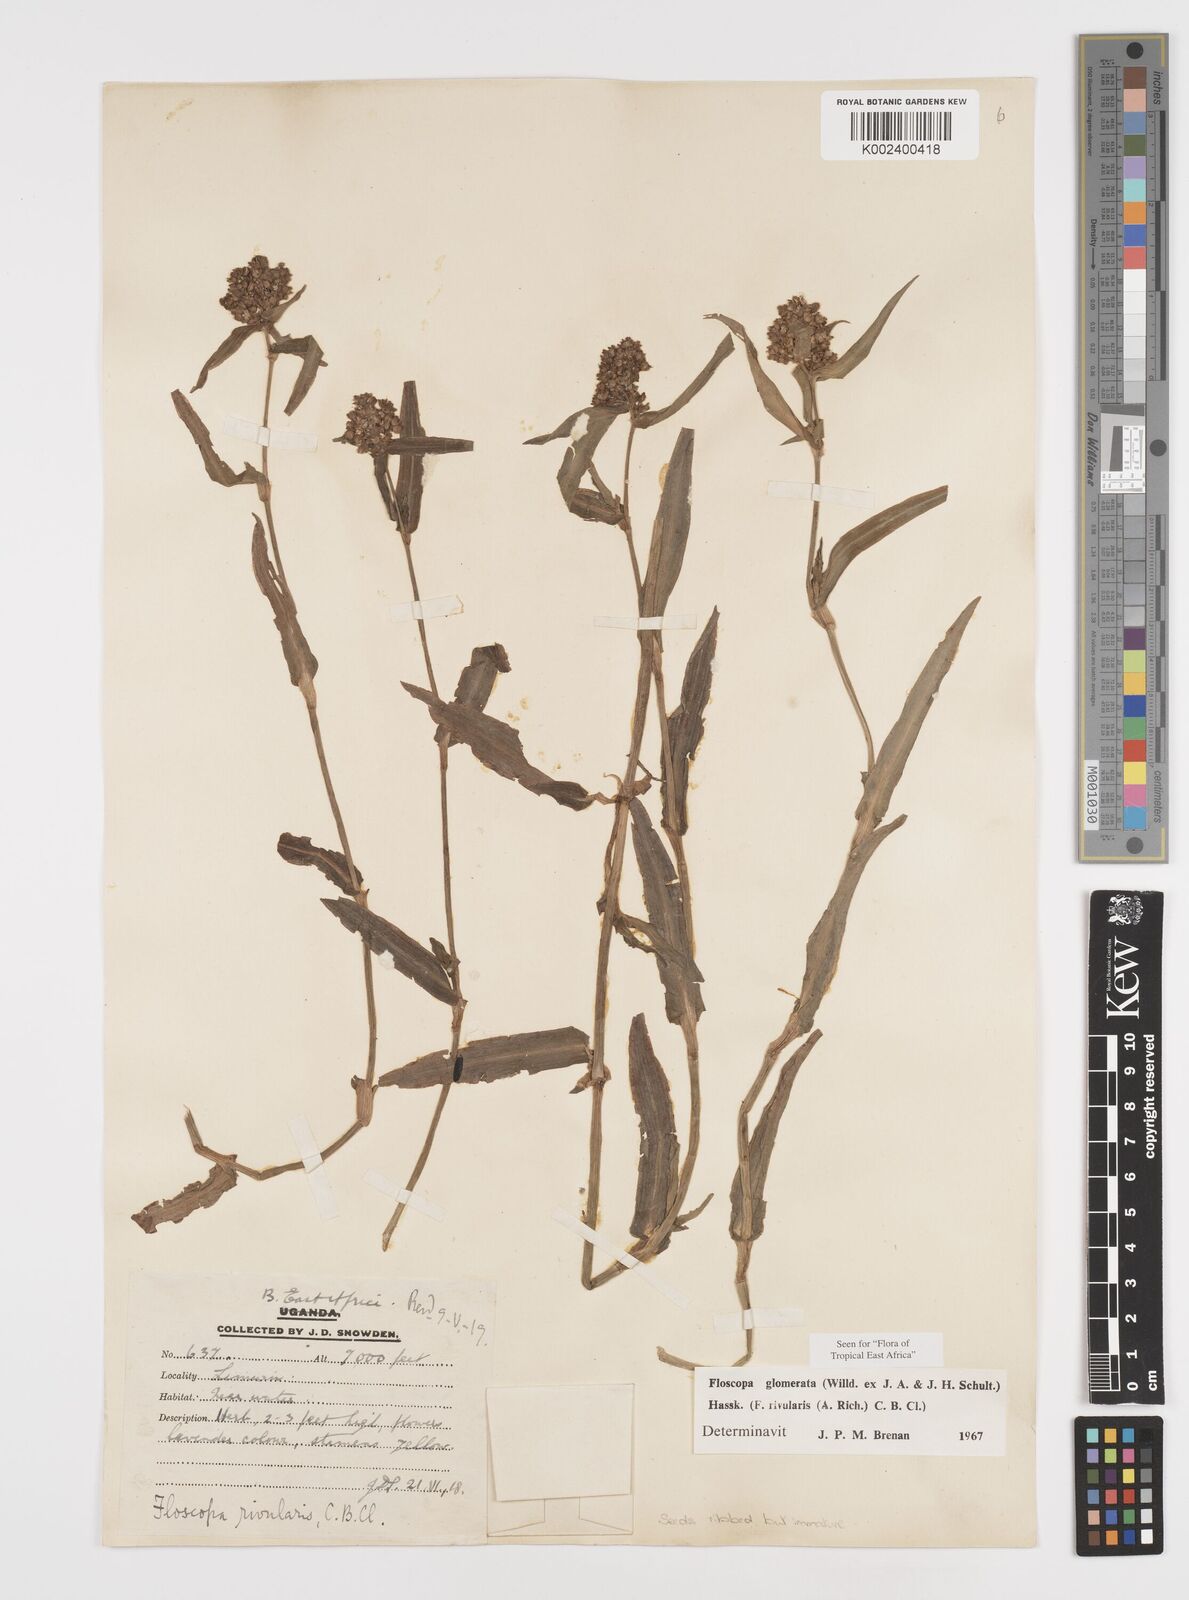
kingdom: Plantae
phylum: Tracheophyta
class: Liliopsida
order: Commelinales
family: Commelinaceae
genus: Floscopa
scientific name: Floscopa glomerata
